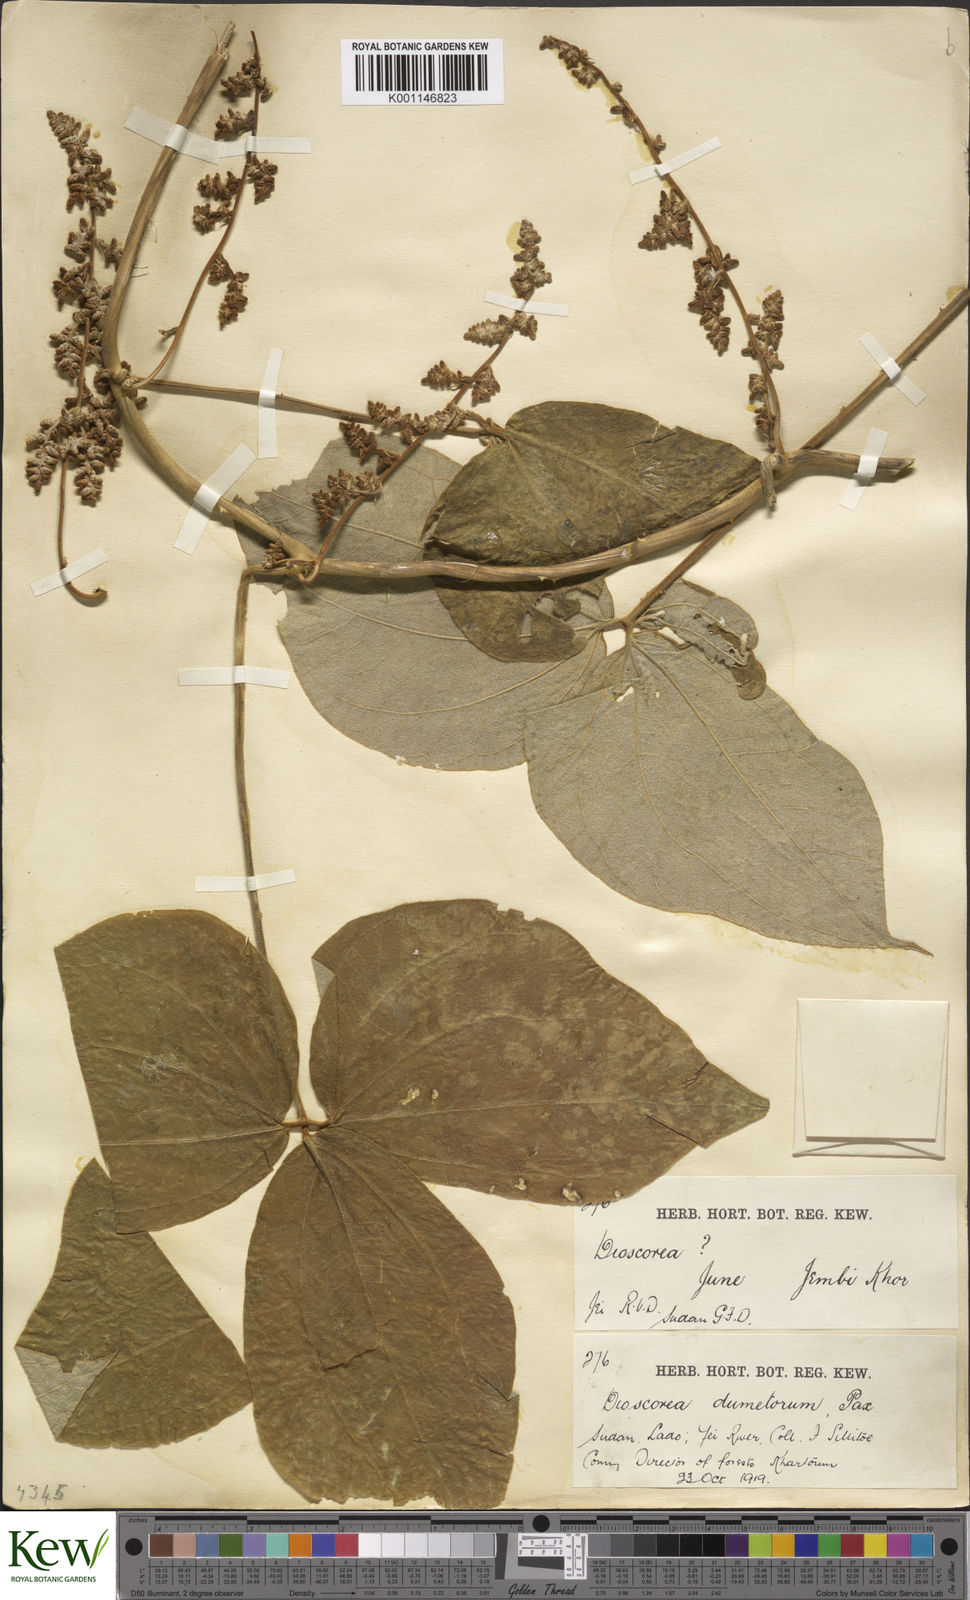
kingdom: Plantae
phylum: Tracheophyta
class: Liliopsida
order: Dioscoreales
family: Dioscoreaceae
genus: Dioscorea
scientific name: Dioscorea dumetorum
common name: African bitter yam
